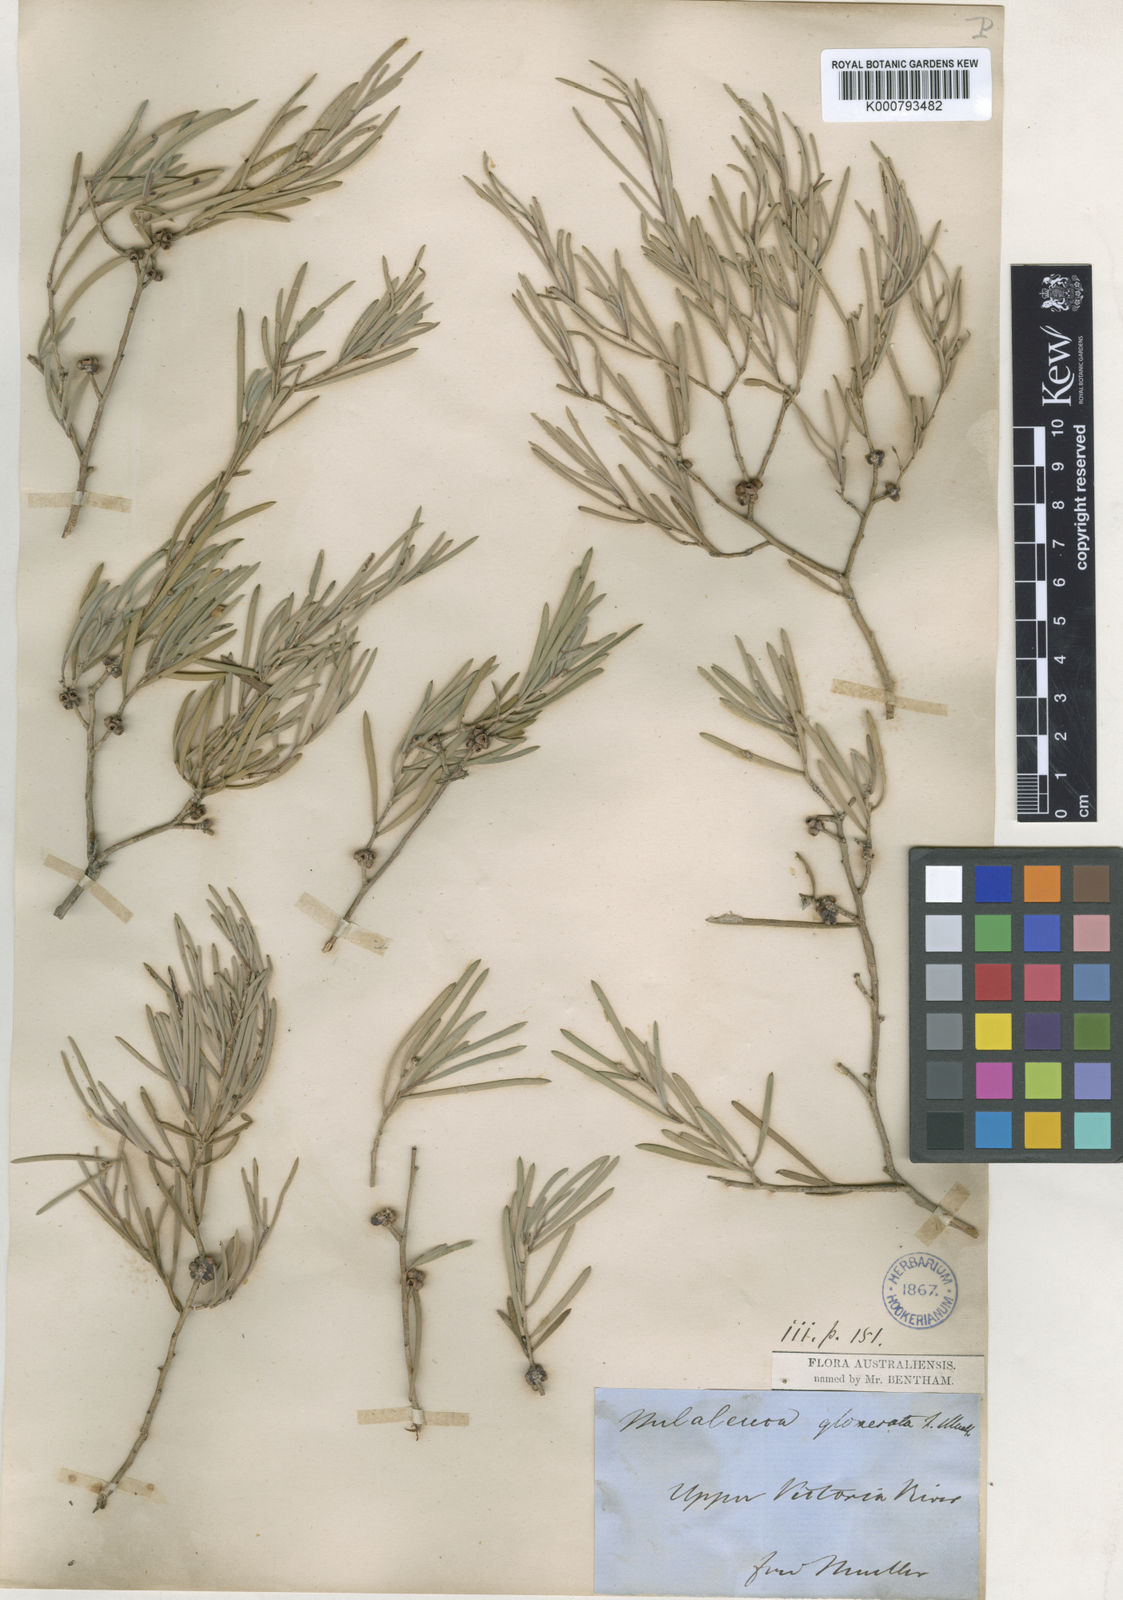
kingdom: Plantae
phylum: Tracheophyta
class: Magnoliopsida
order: Myrtales
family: Myrtaceae
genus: Melaleuca
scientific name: Melaleuca glomerata
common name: Desert honey-myrtle
